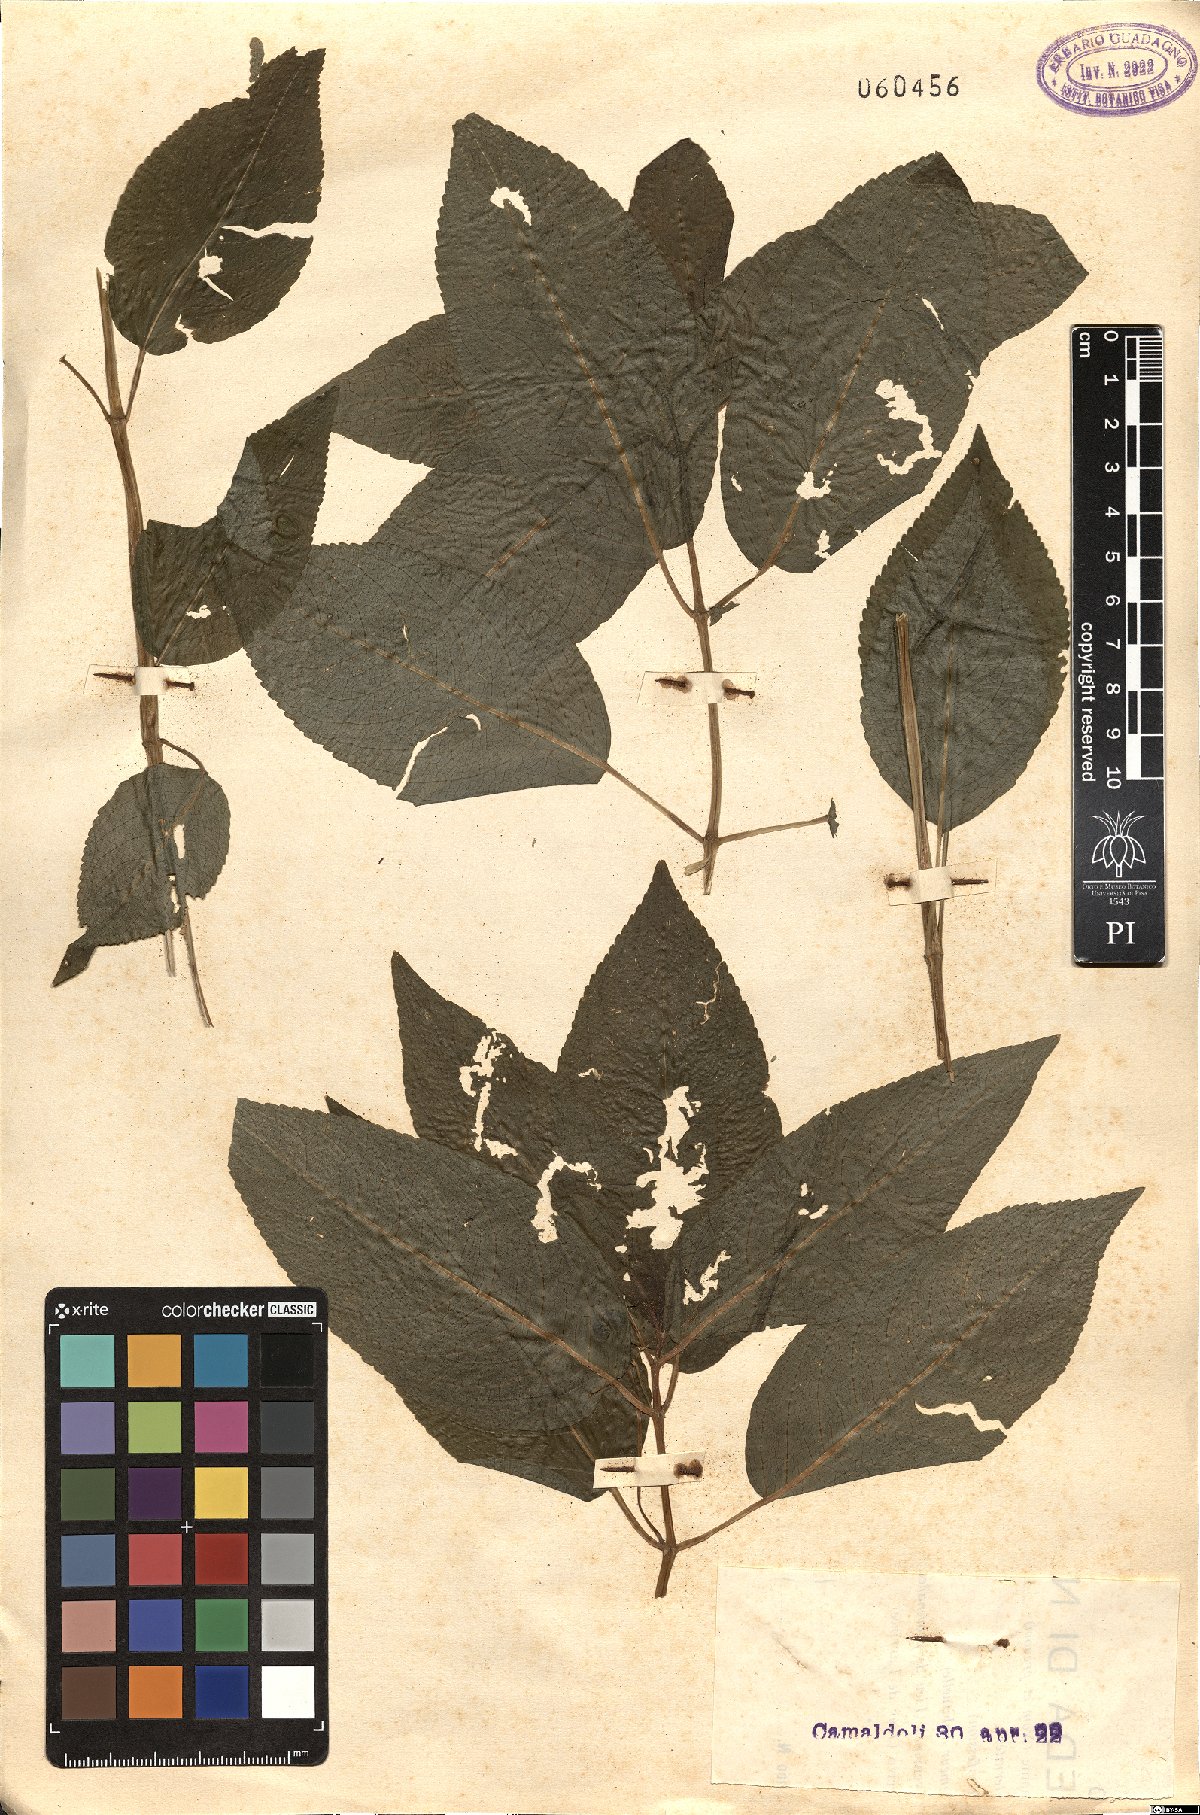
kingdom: Plantae
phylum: Tracheophyta
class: Magnoliopsida
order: Malpighiales
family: Euphorbiaceae
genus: Mercurialis
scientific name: Mercurialis perennis
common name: Dog mercury
